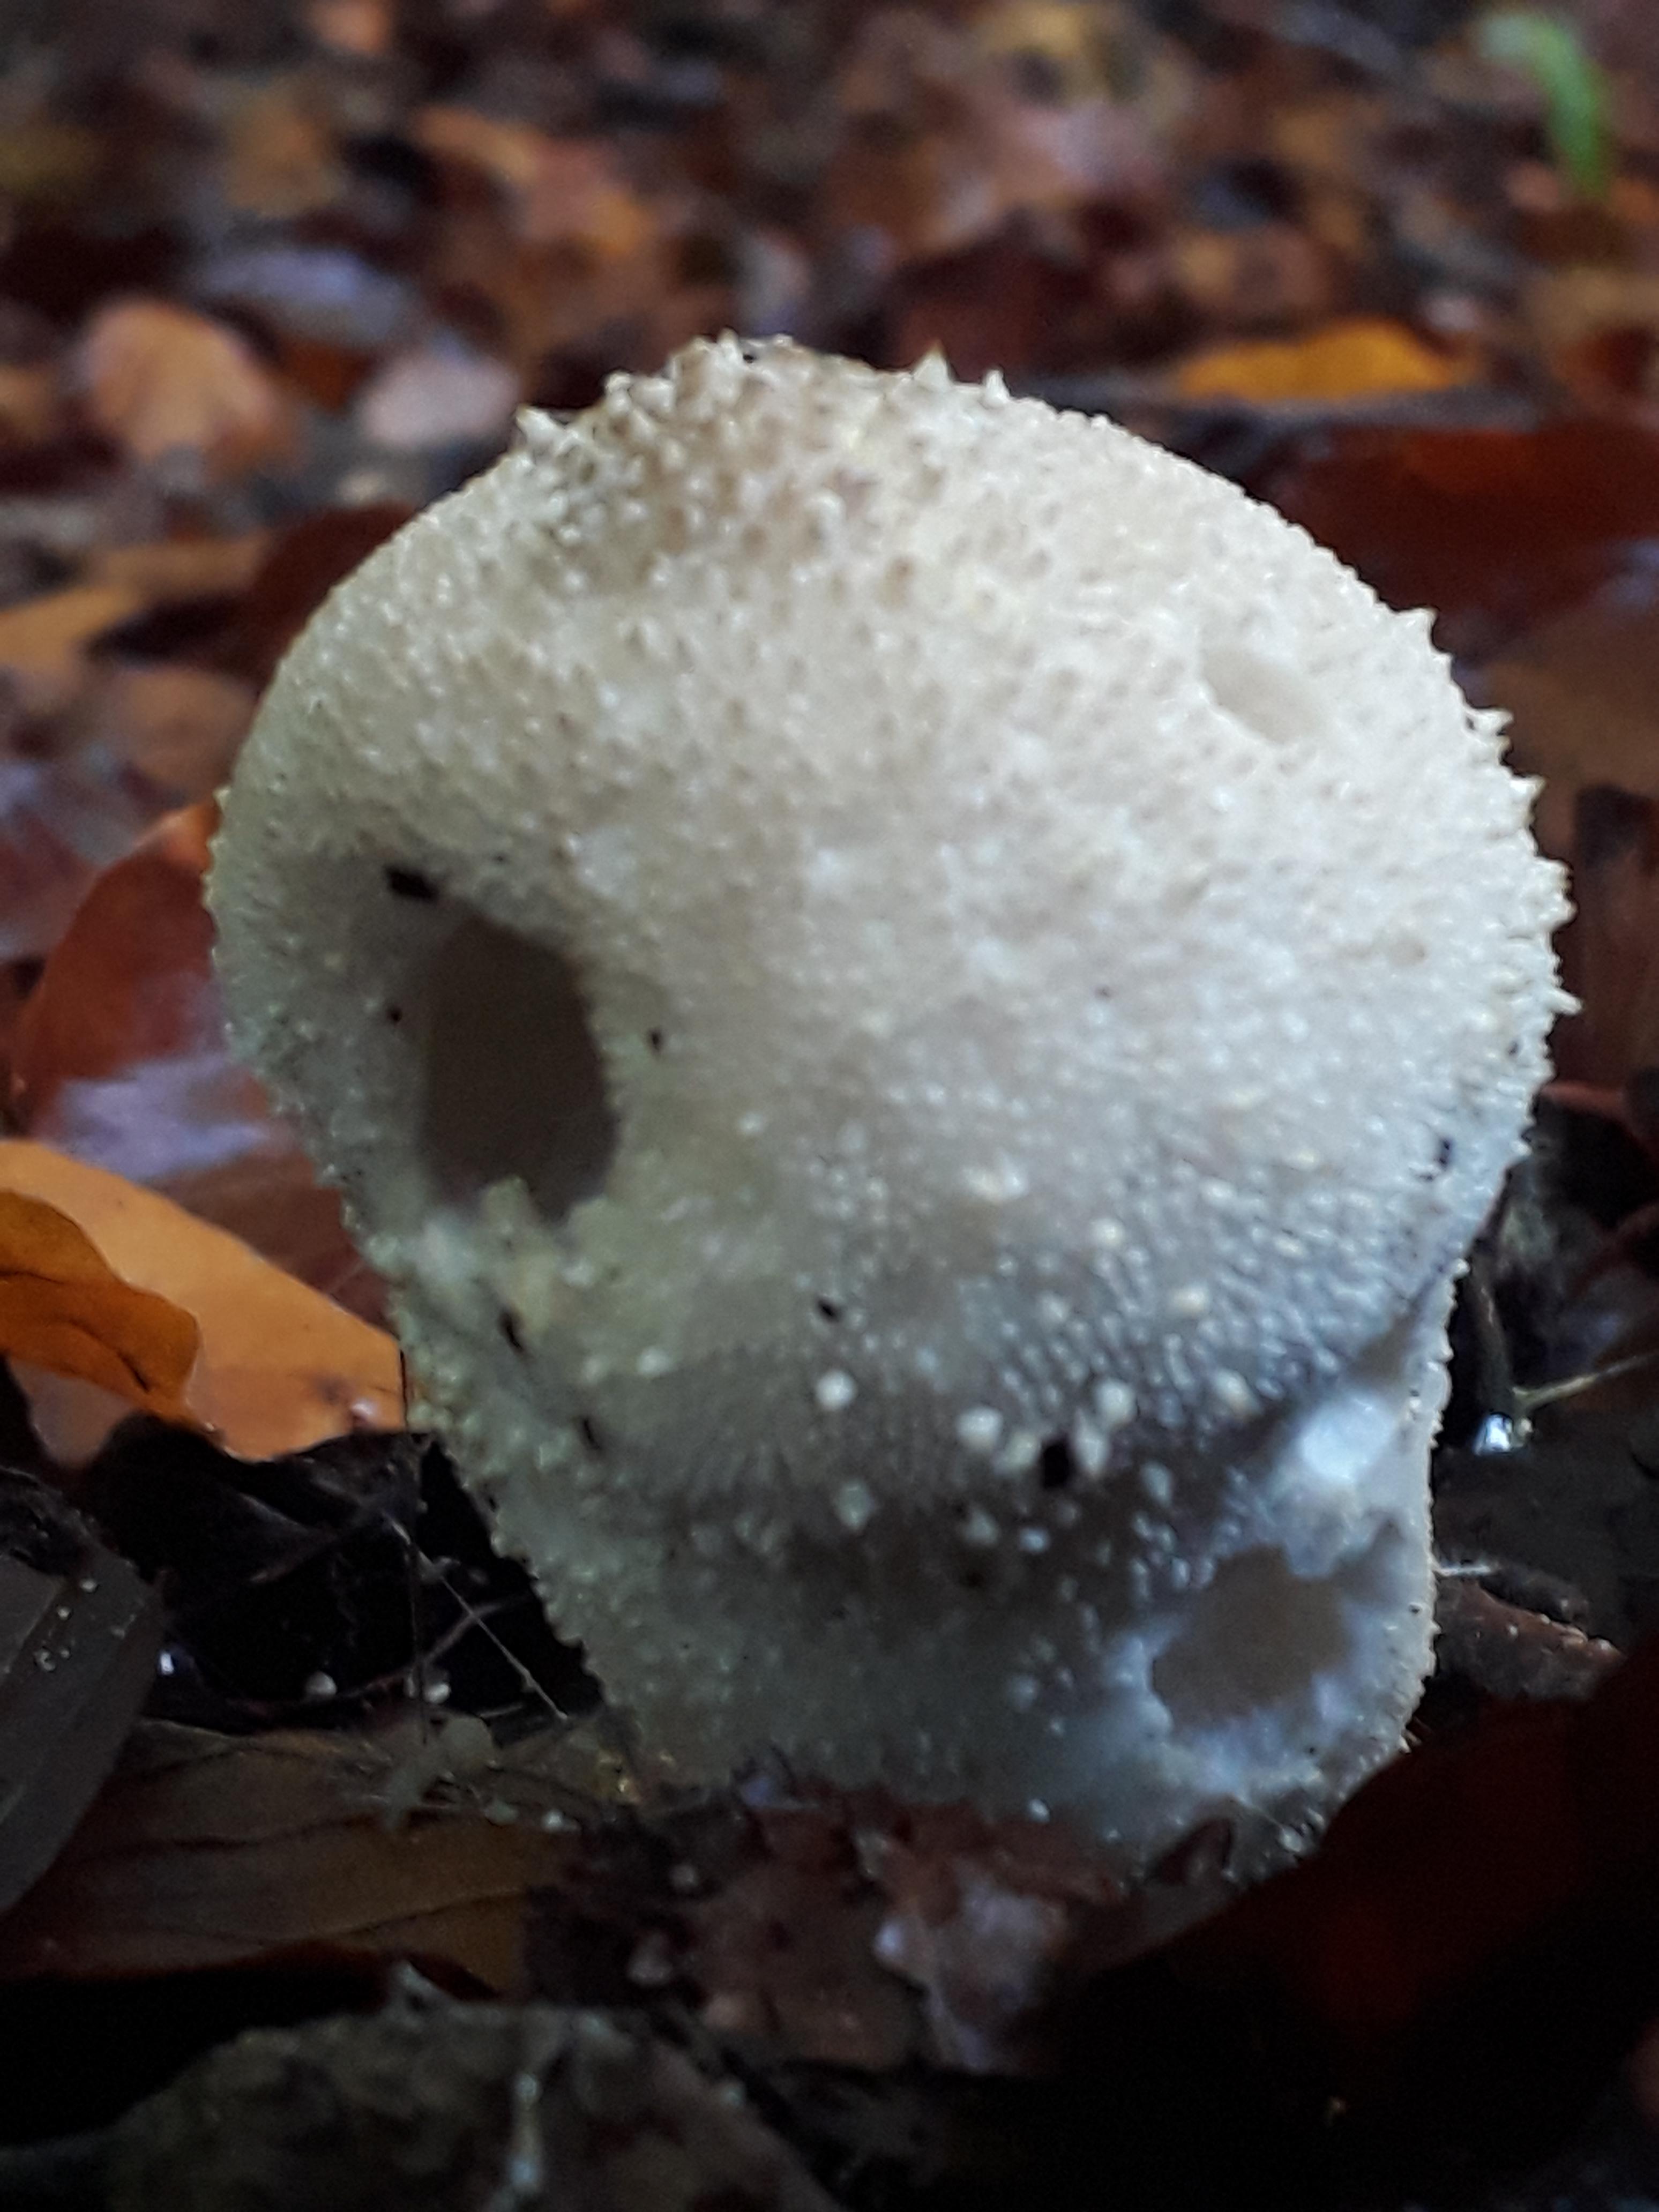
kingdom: Fungi
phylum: Basidiomycota
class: Agaricomycetes
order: Agaricales
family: Lycoperdaceae
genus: Lycoperdon
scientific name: Lycoperdon perlatum
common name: krystal-støvbold
